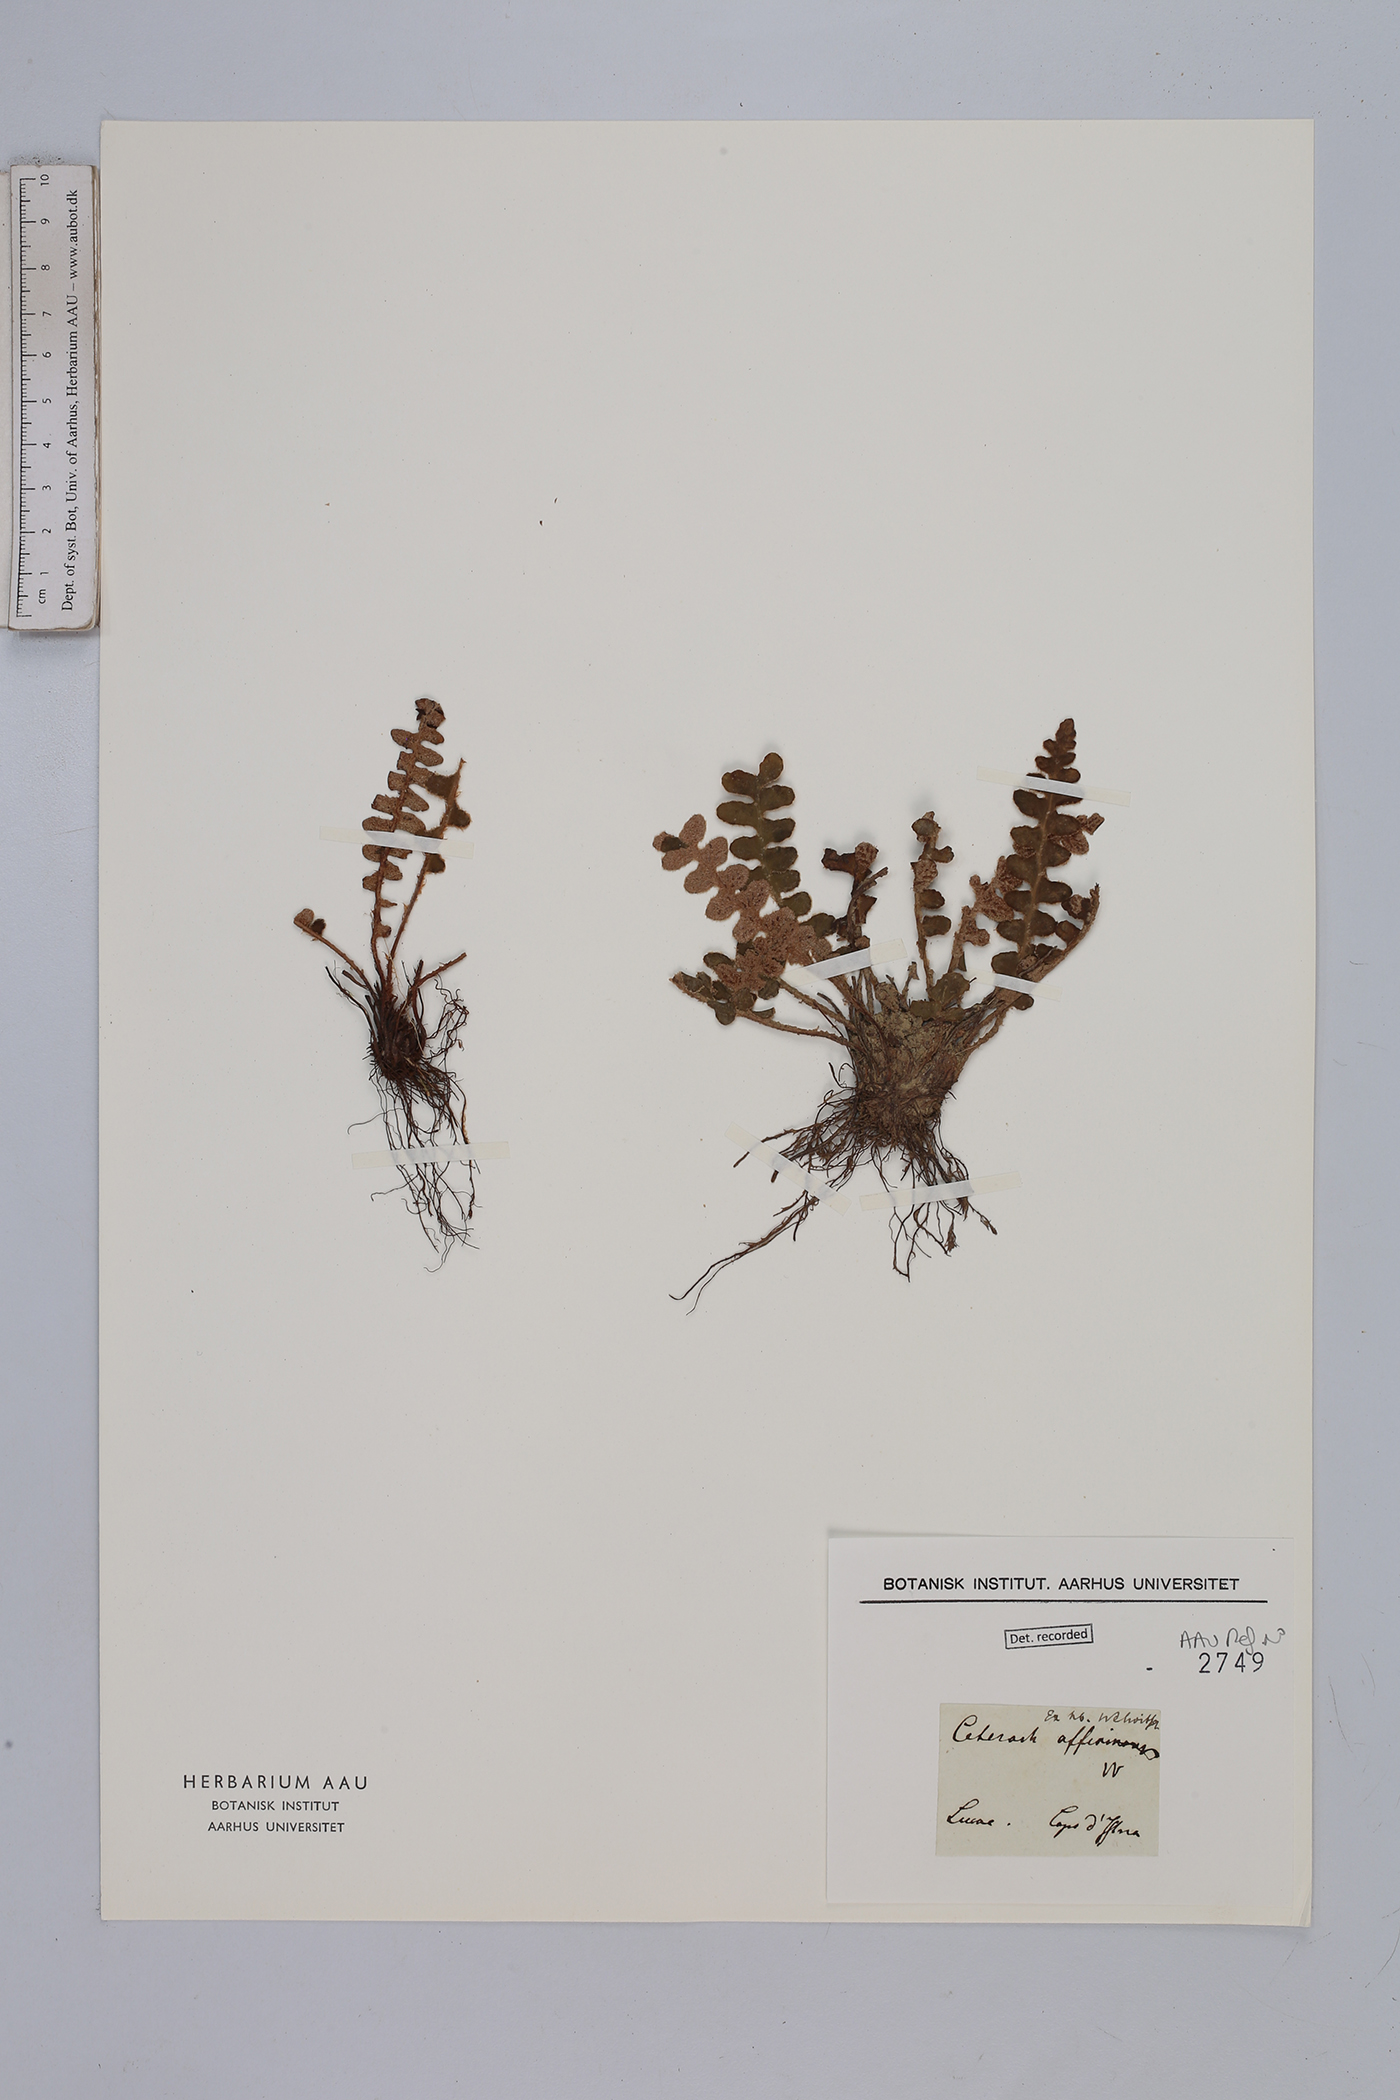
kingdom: Plantae
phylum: Tracheophyta
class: Polypodiopsida
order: Polypodiales
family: Aspleniaceae
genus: Asplenium
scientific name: Asplenium ceterach
